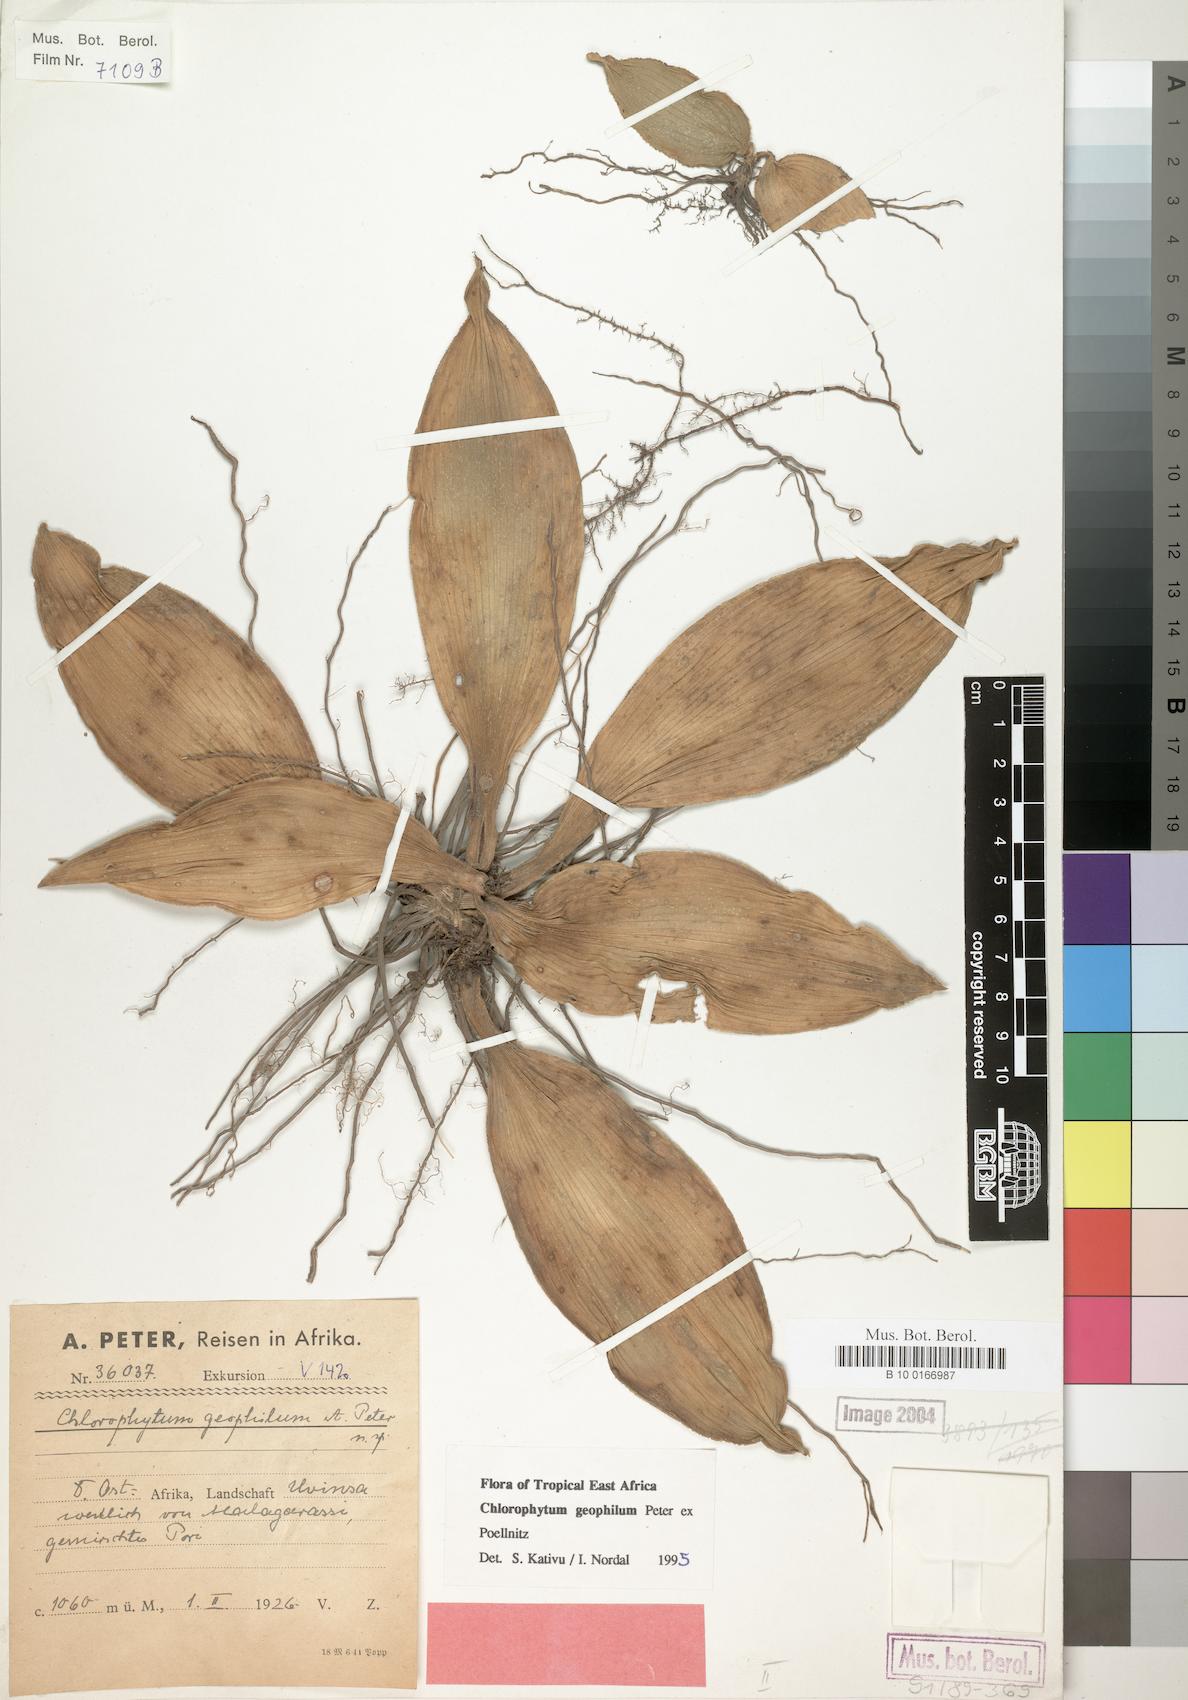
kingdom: Plantae
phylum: Tracheophyta
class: Liliopsida
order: Asparagales
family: Asparagaceae
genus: Chlorophytum
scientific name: Chlorophytum geophilum
